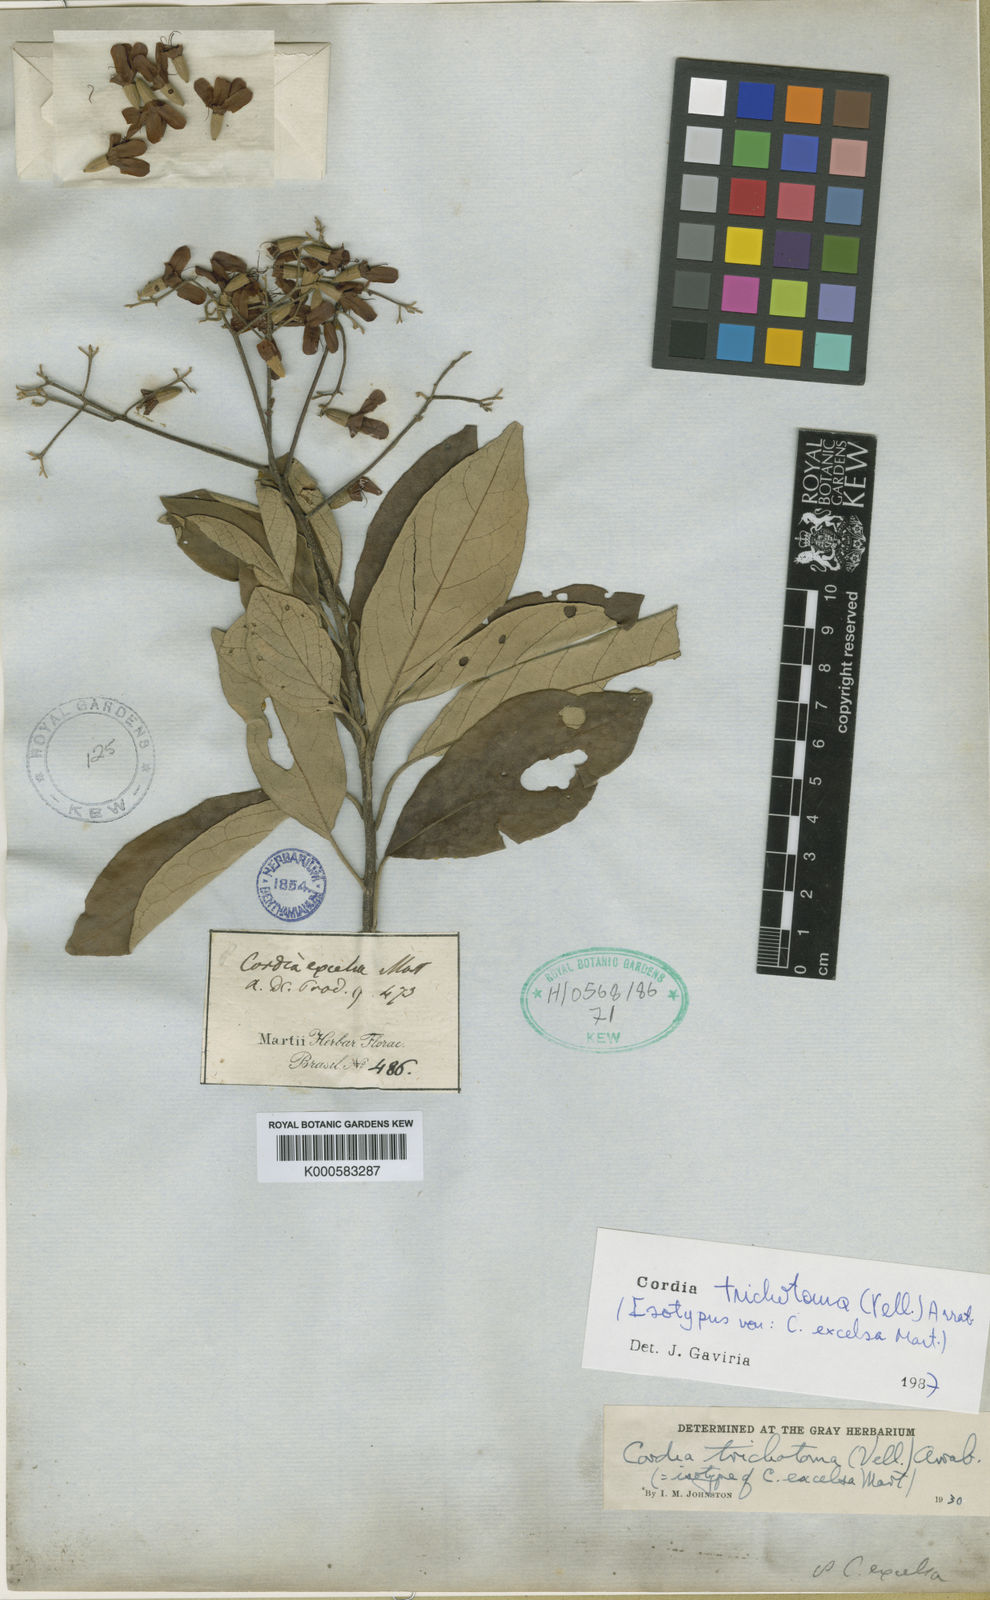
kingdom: Plantae
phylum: Tracheophyta
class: Magnoliopsida
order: Boraginales
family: Cordiaceae
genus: Cordia
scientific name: Cordia
